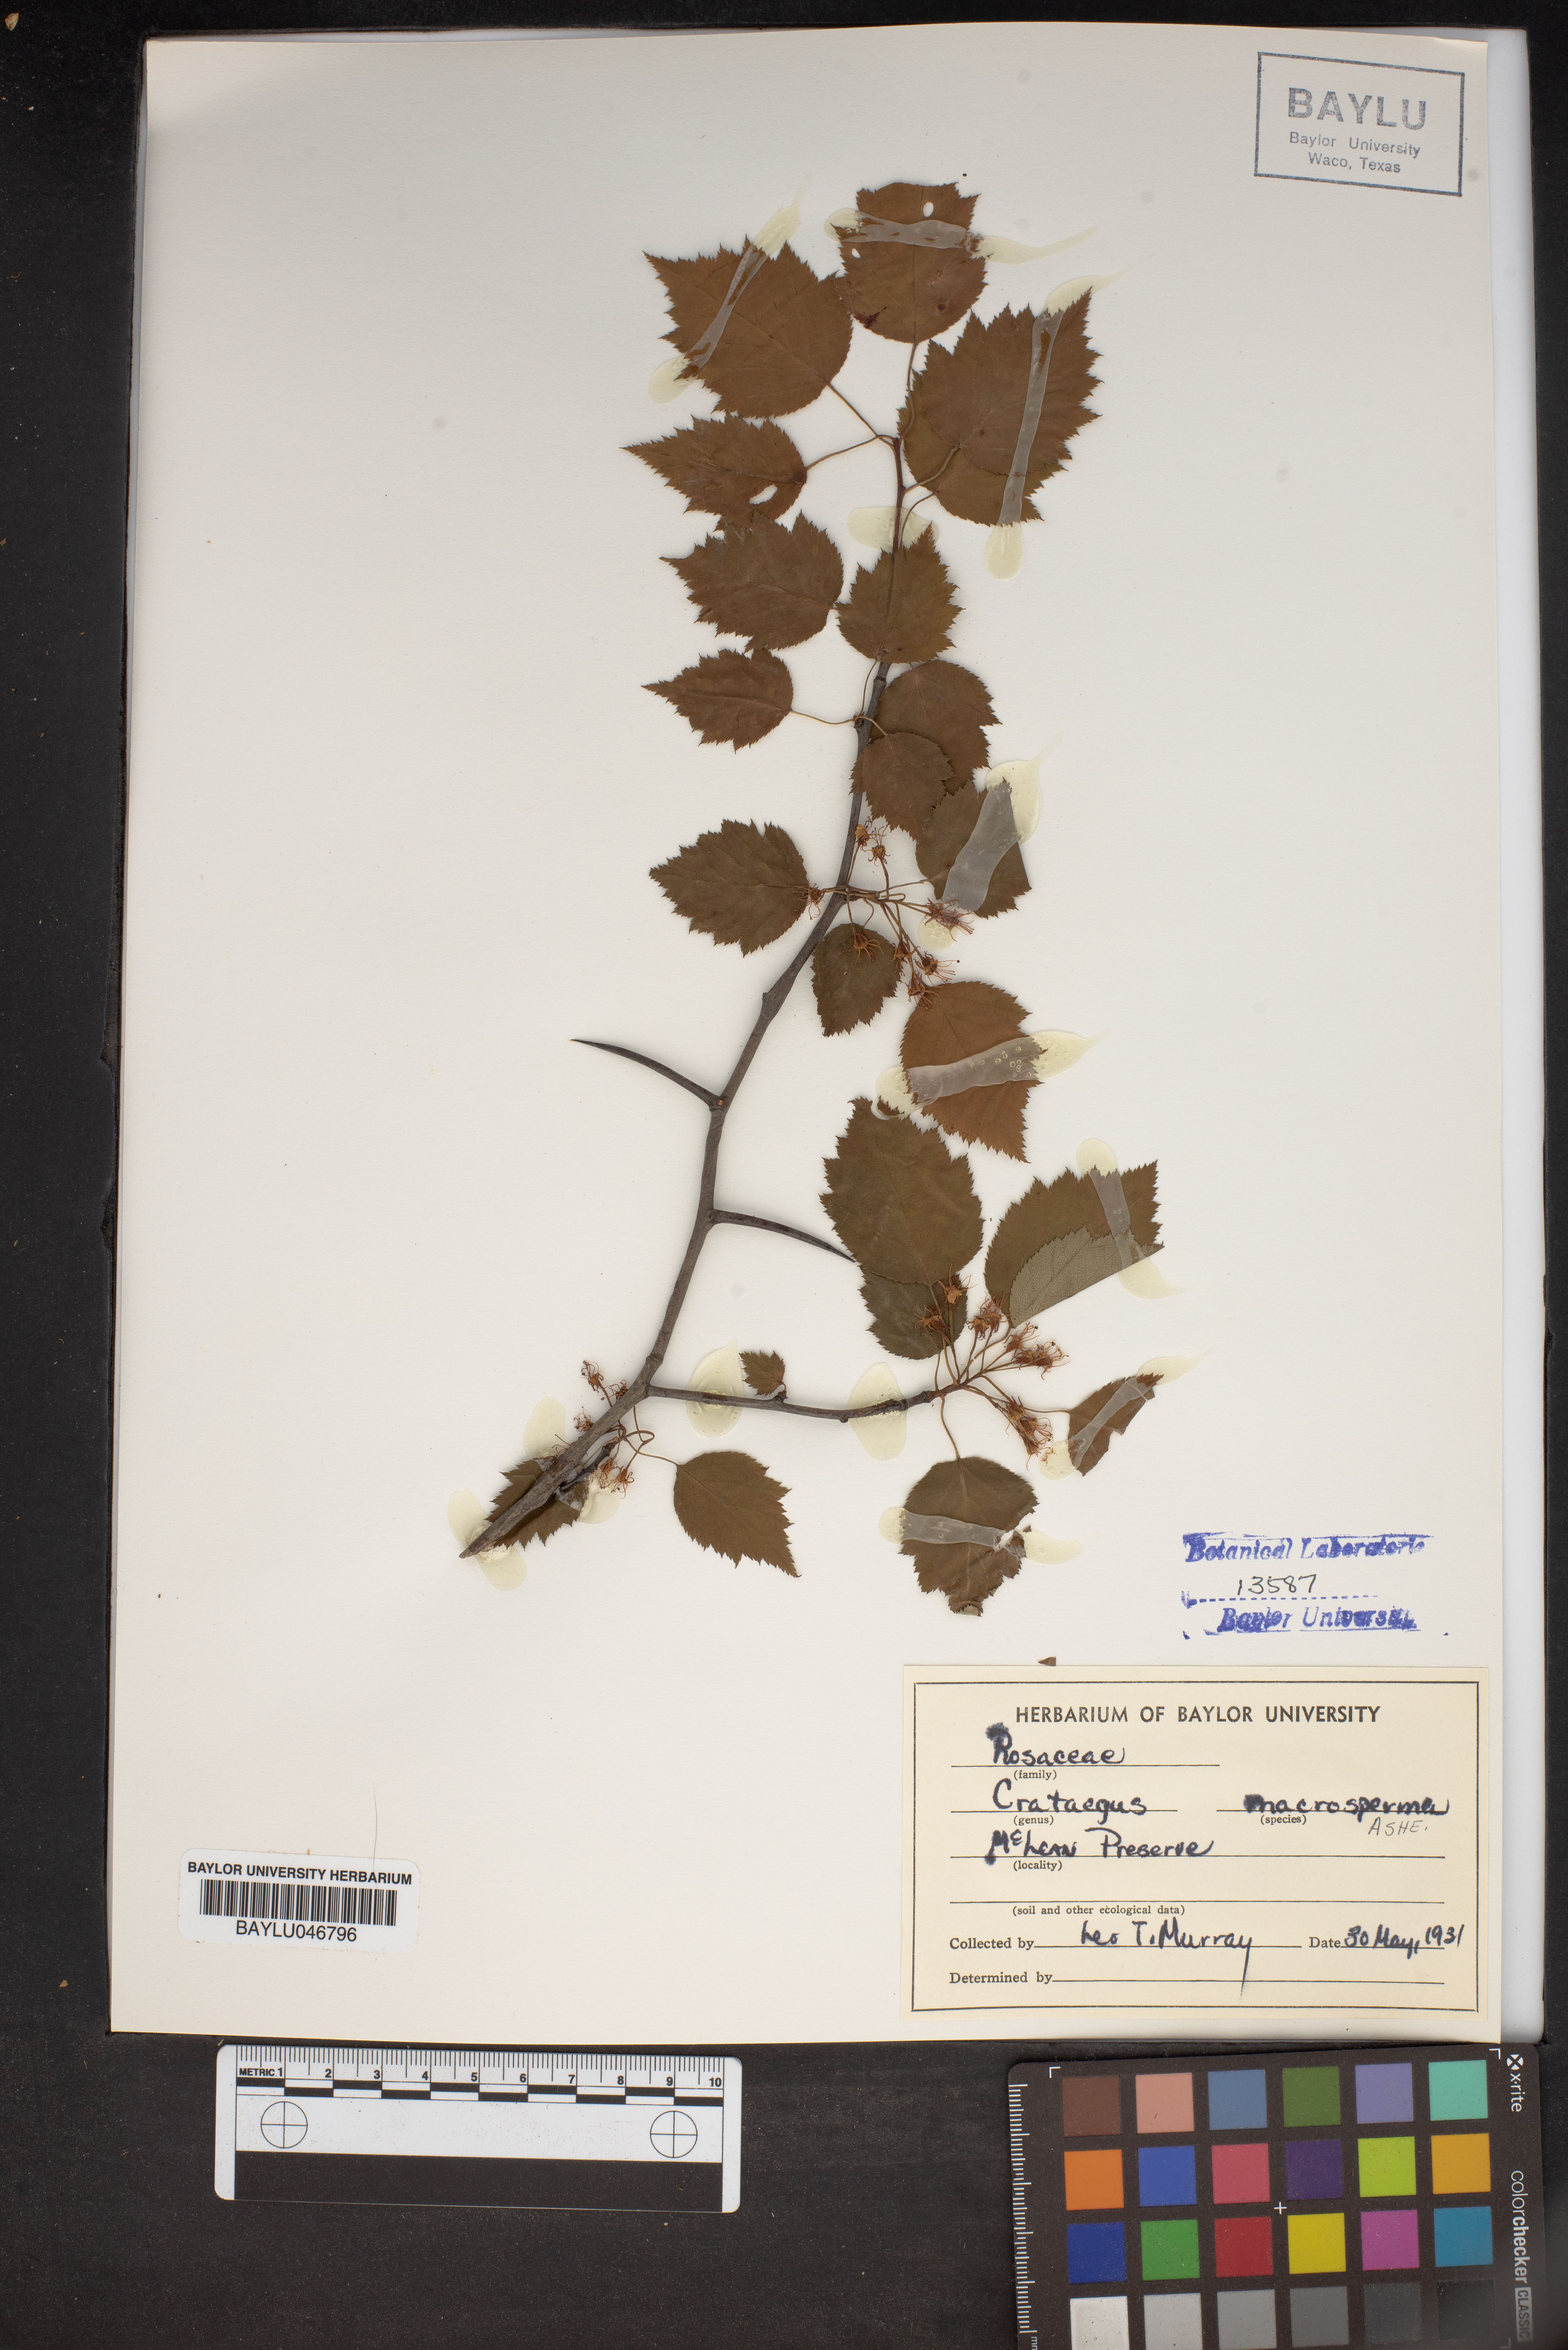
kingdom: Plantae
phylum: Tracheophyta
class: Magnoliopsida
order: Rosales
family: Rosaceae
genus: Crataegus
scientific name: Crataegus macrosperma
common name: Variable hawthorn
